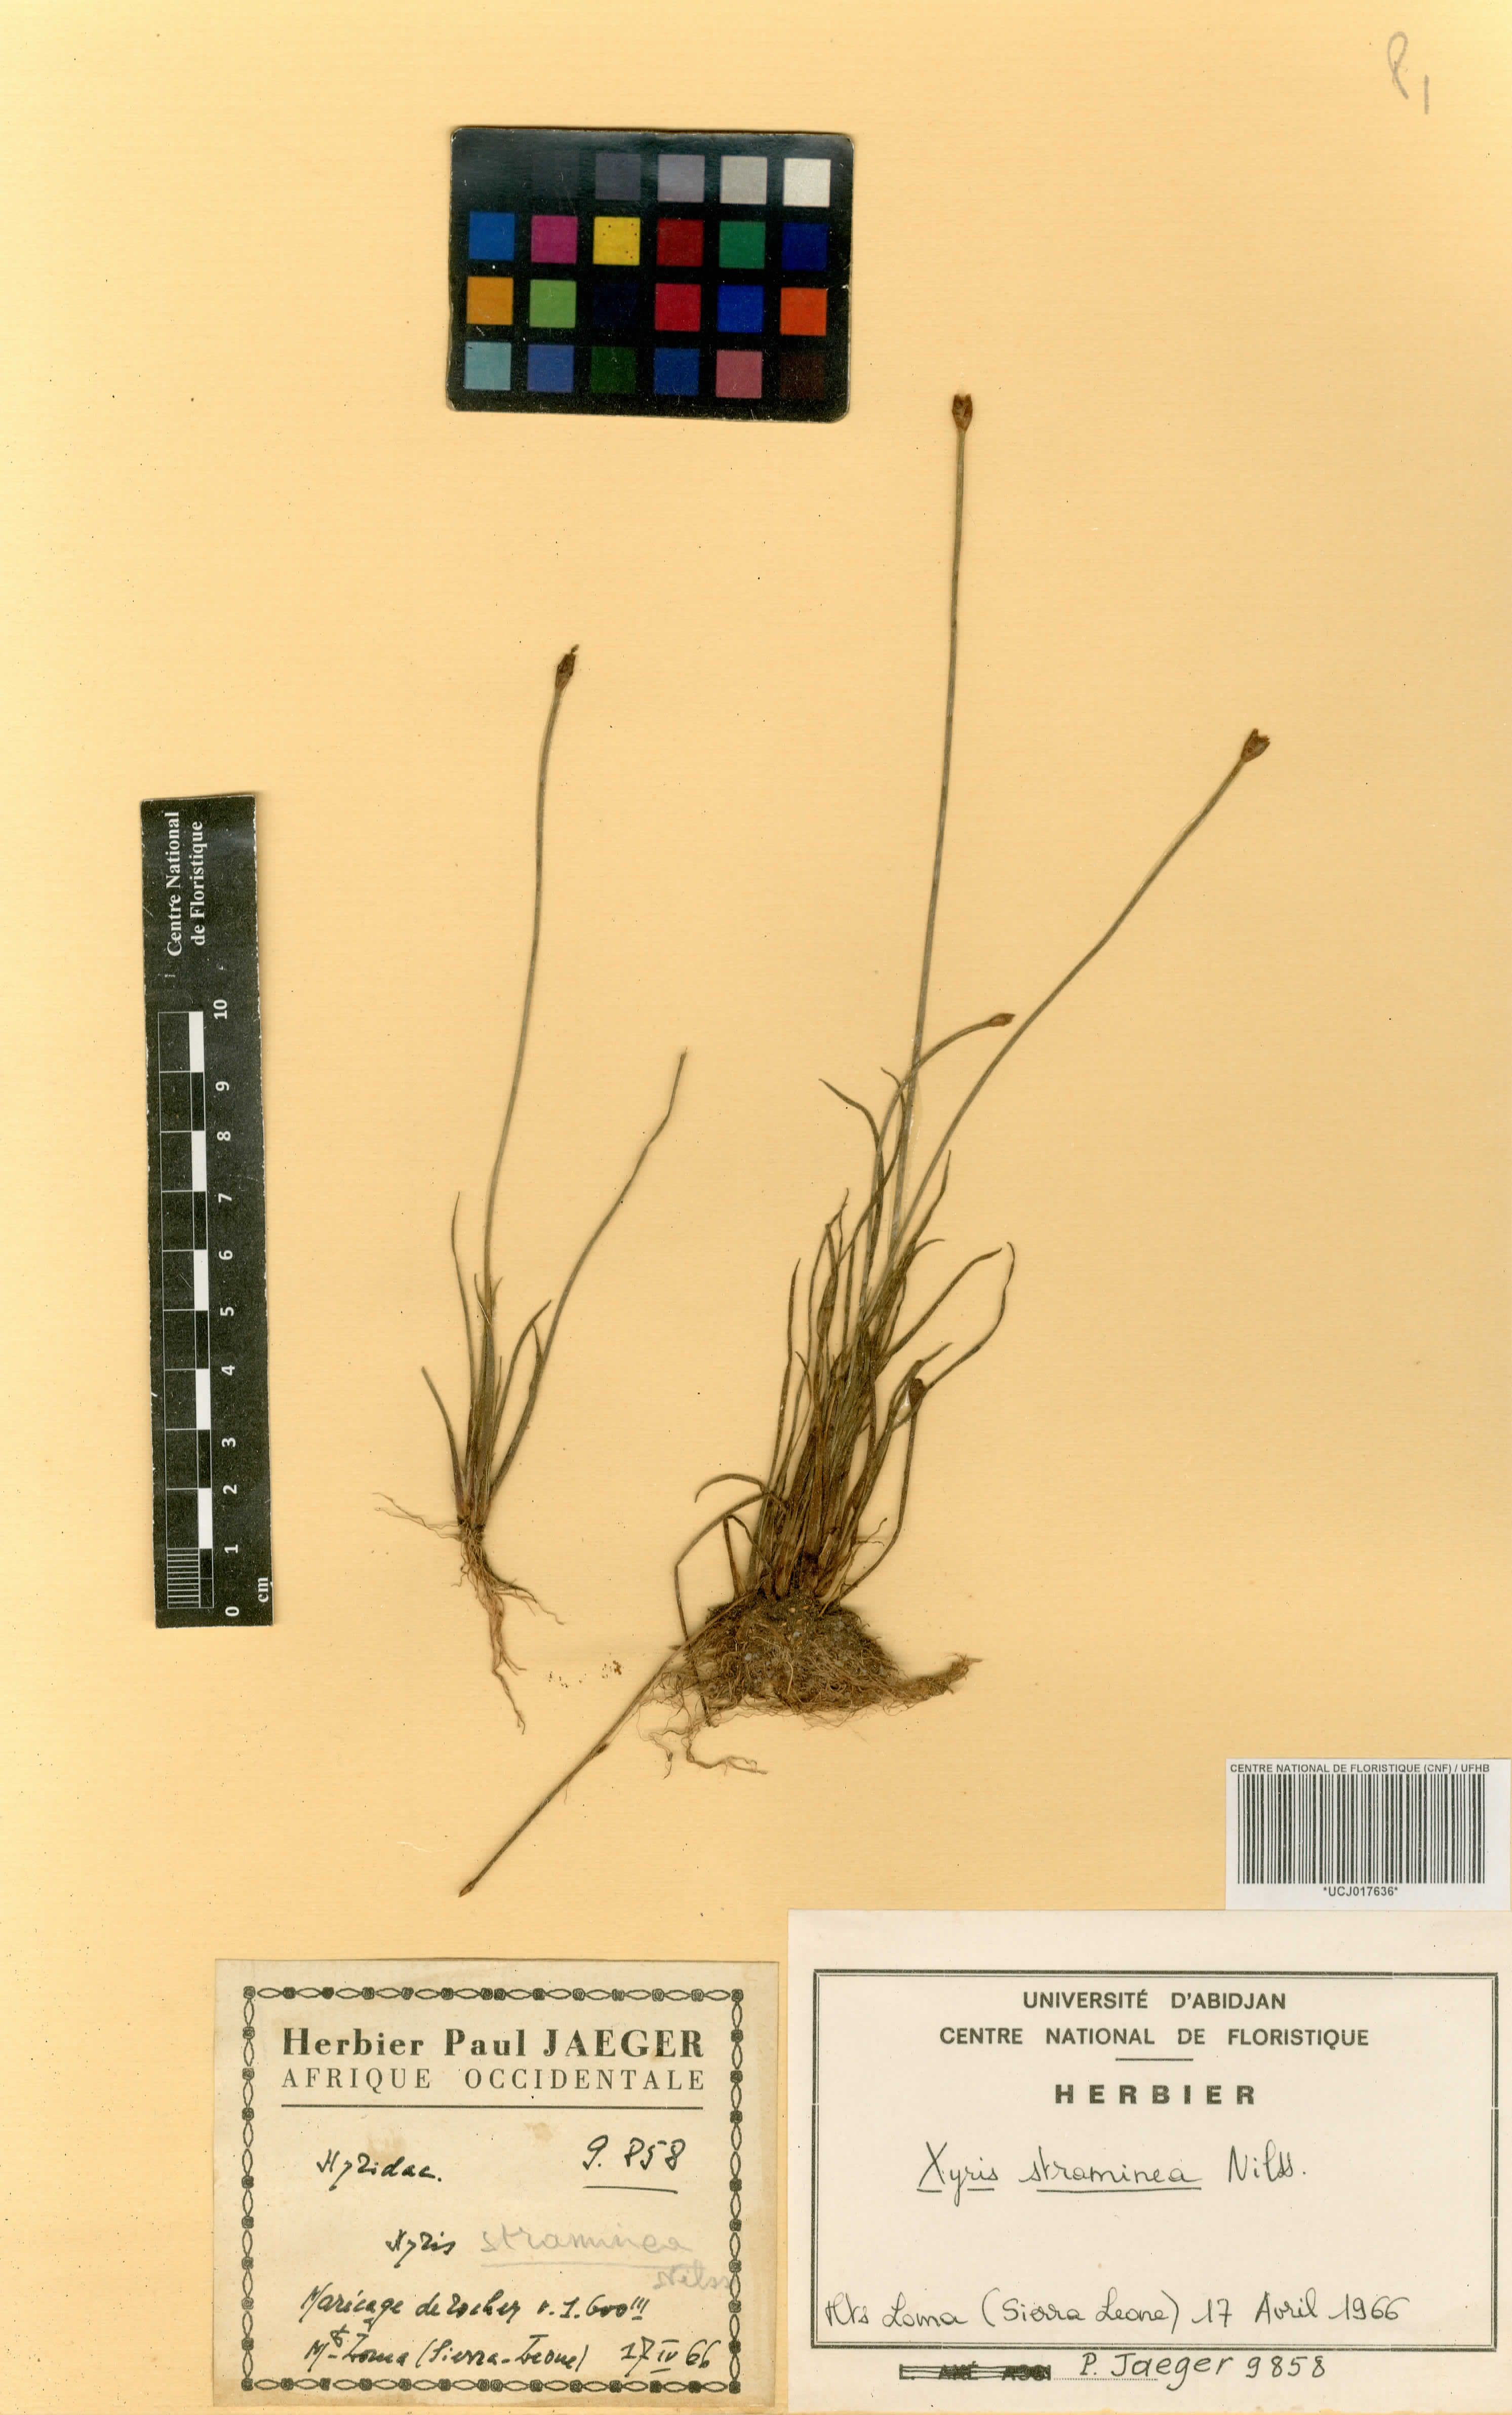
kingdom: Plantae
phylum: Tracheophyta
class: Liliopsida
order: Poales
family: Xyridaceae
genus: Xyris
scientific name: Xyris straminea
